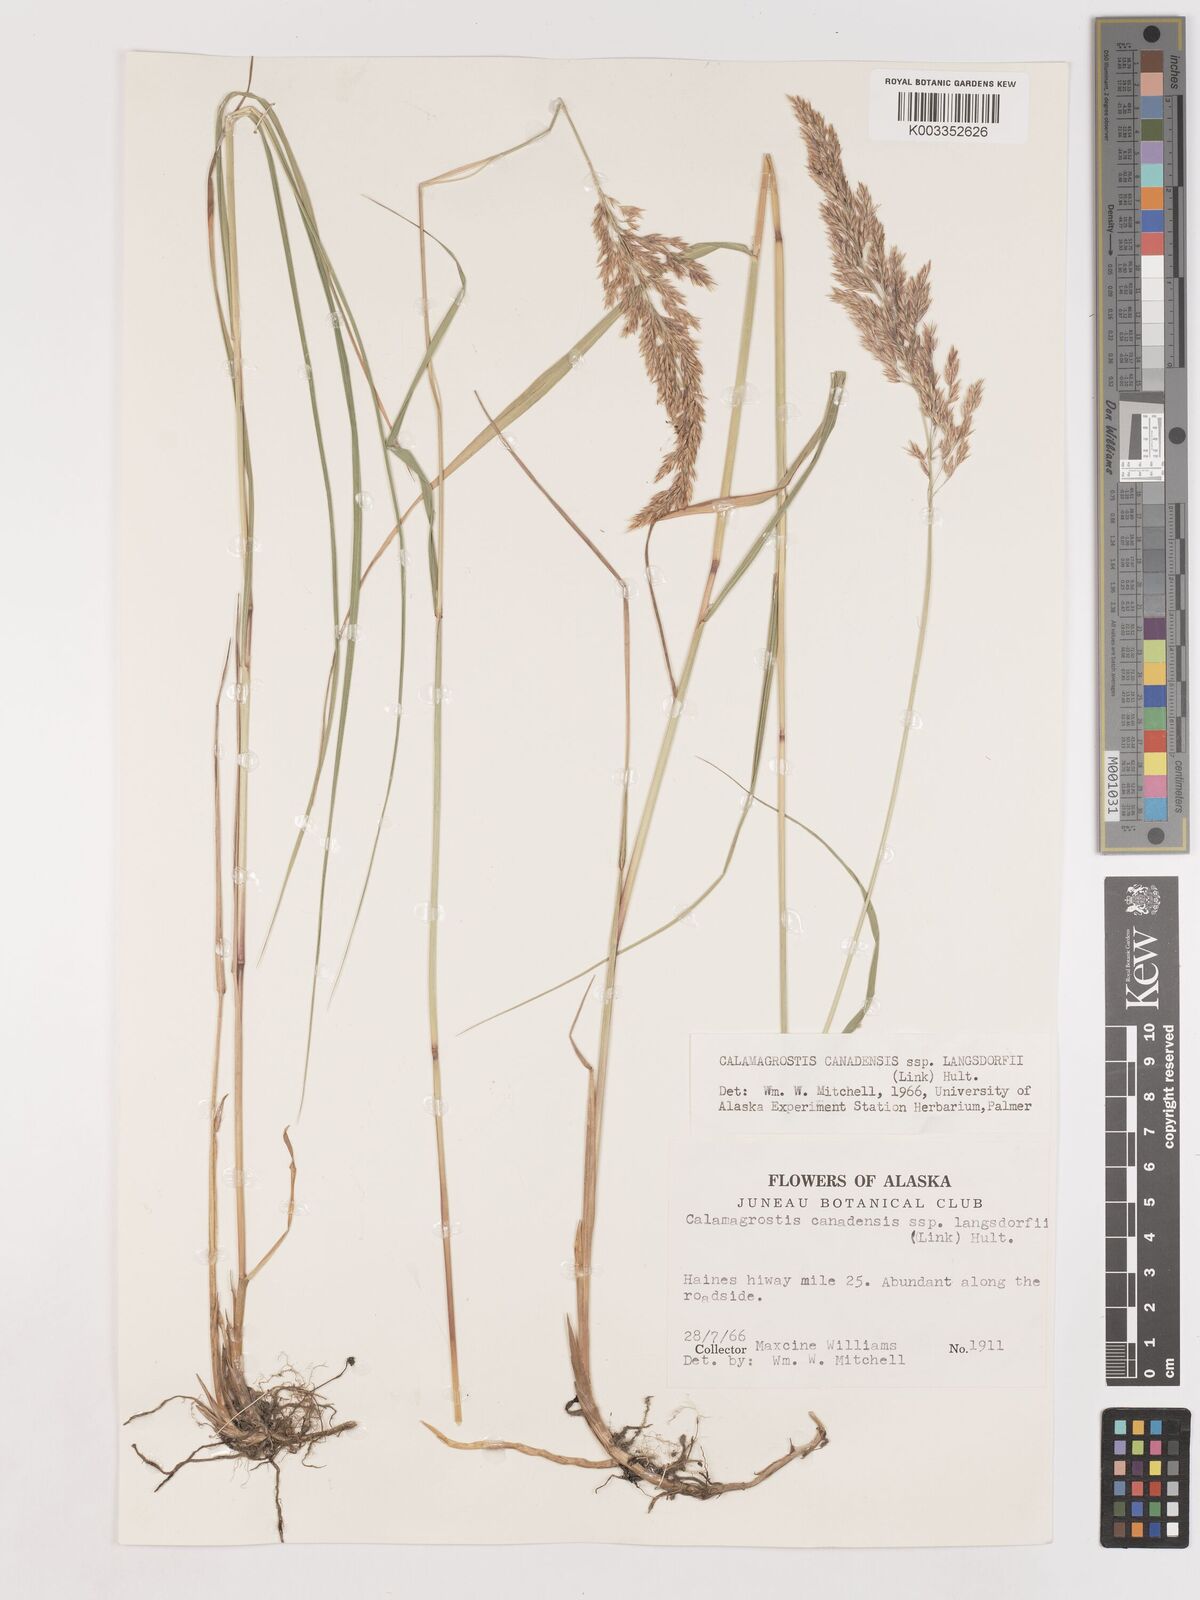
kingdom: Plantae
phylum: Tracheophyta
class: Liliopsida
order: Poales
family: Poaceae
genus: Calamagrostis
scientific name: Calamagrostis canadensis
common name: Canada bluejoint
